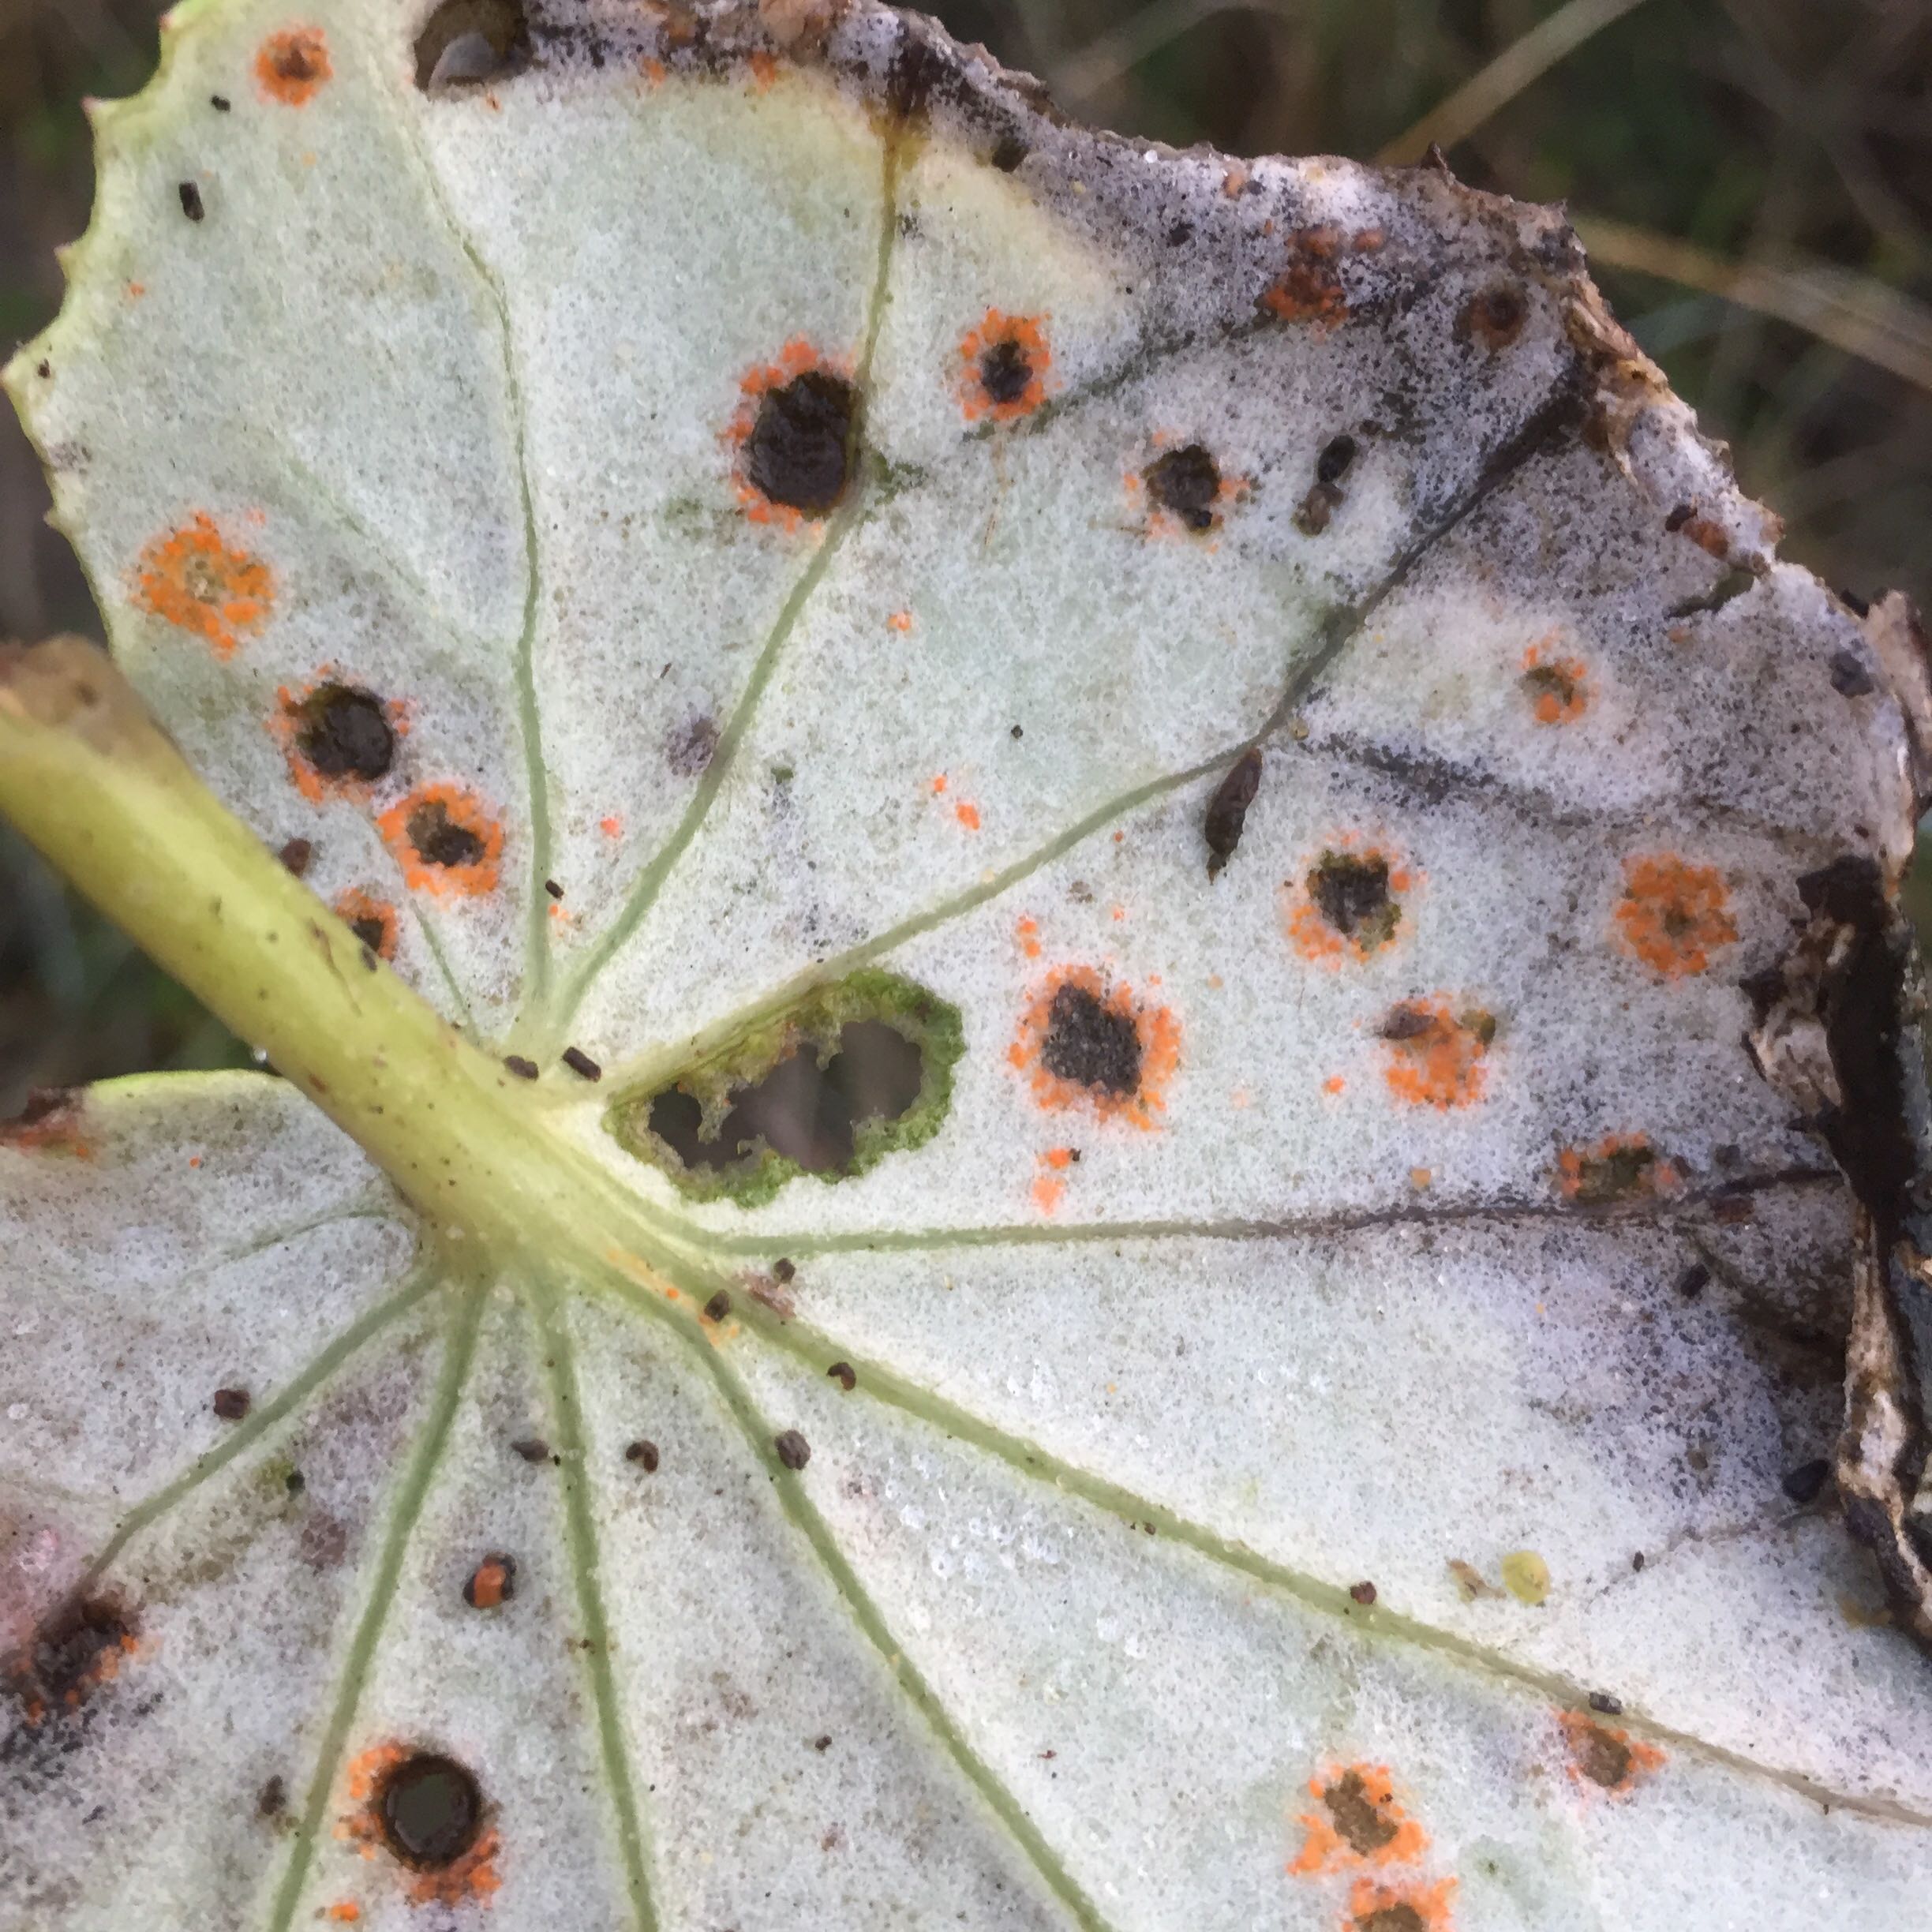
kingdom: Fungi
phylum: Basidiomycota
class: Pucciniomycetes
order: Pucciniales
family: Coleosporiaceae
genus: Coleosporium
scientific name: Coleosporium tussilaginis
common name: almindelig fyrrenålerust
